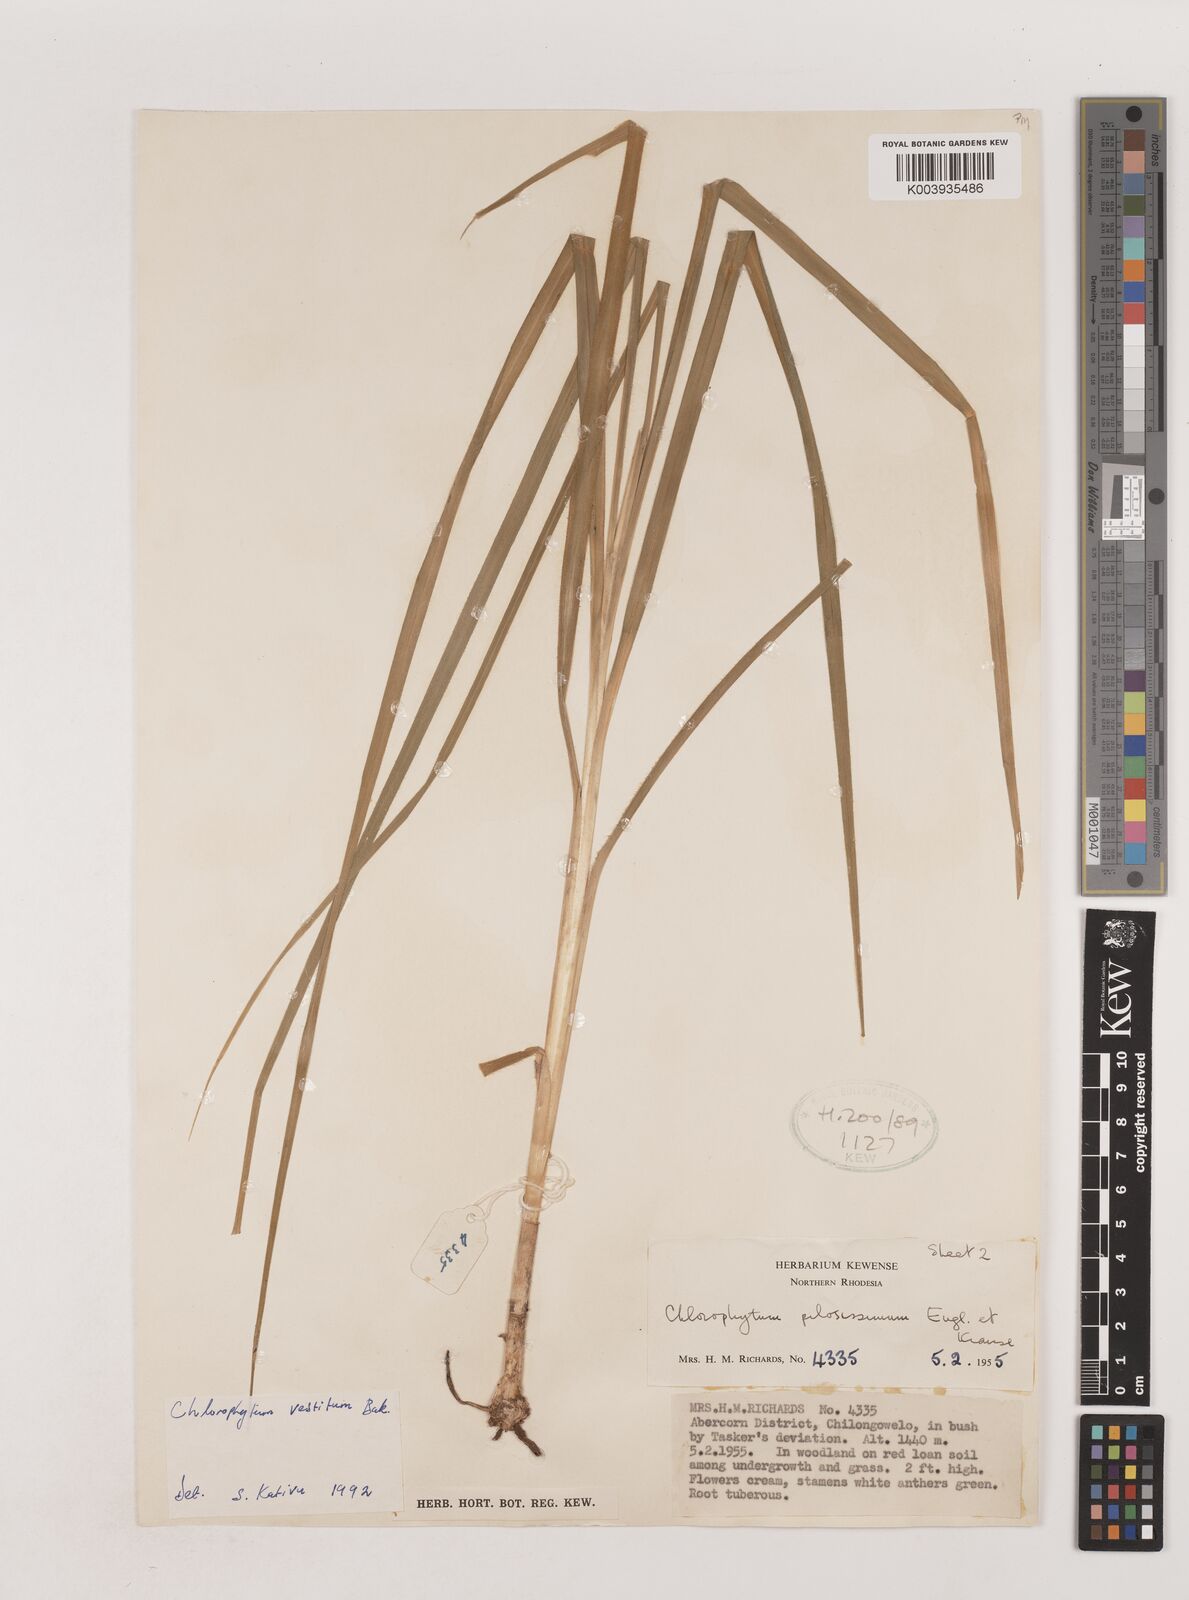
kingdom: Plantae
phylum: Tracheophyta
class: Liliopsida
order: Asparagales
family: Asparagaceae
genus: Chlorophytum
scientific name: Chlorophytum vestitum
